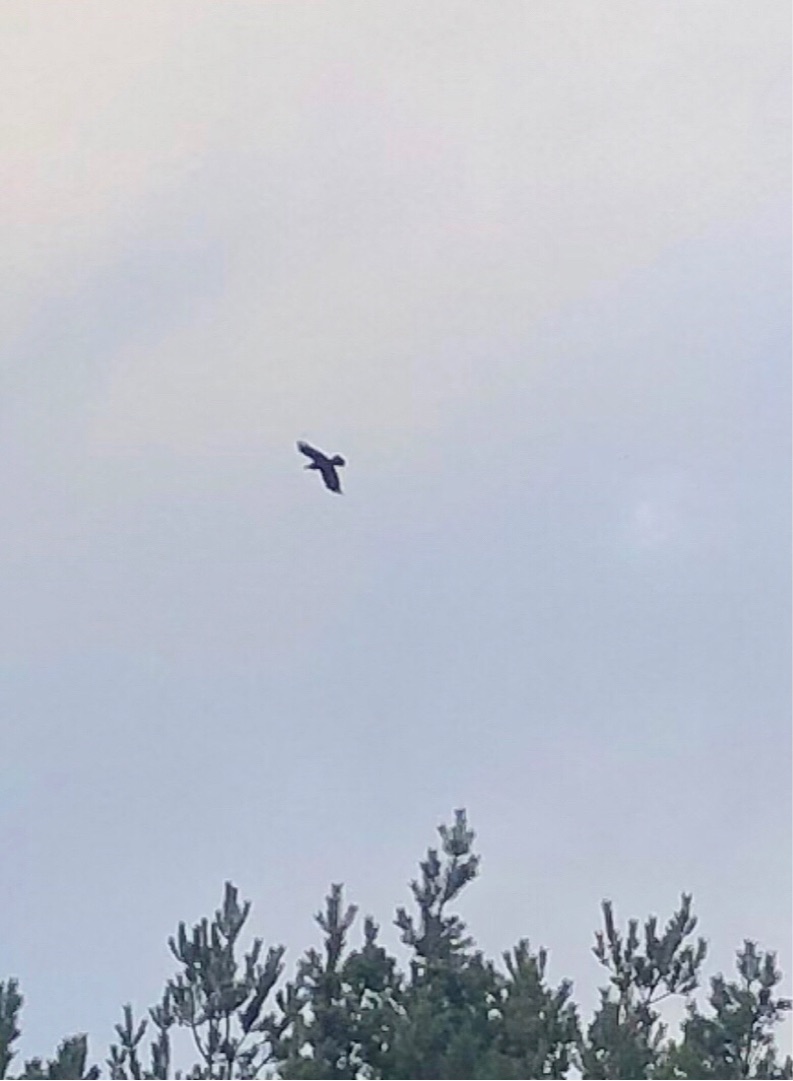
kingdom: Animalia
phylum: Chordata
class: Aves
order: Passeriformes
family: Corvidae
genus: Corvus
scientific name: Corvus corax
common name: Ravn
